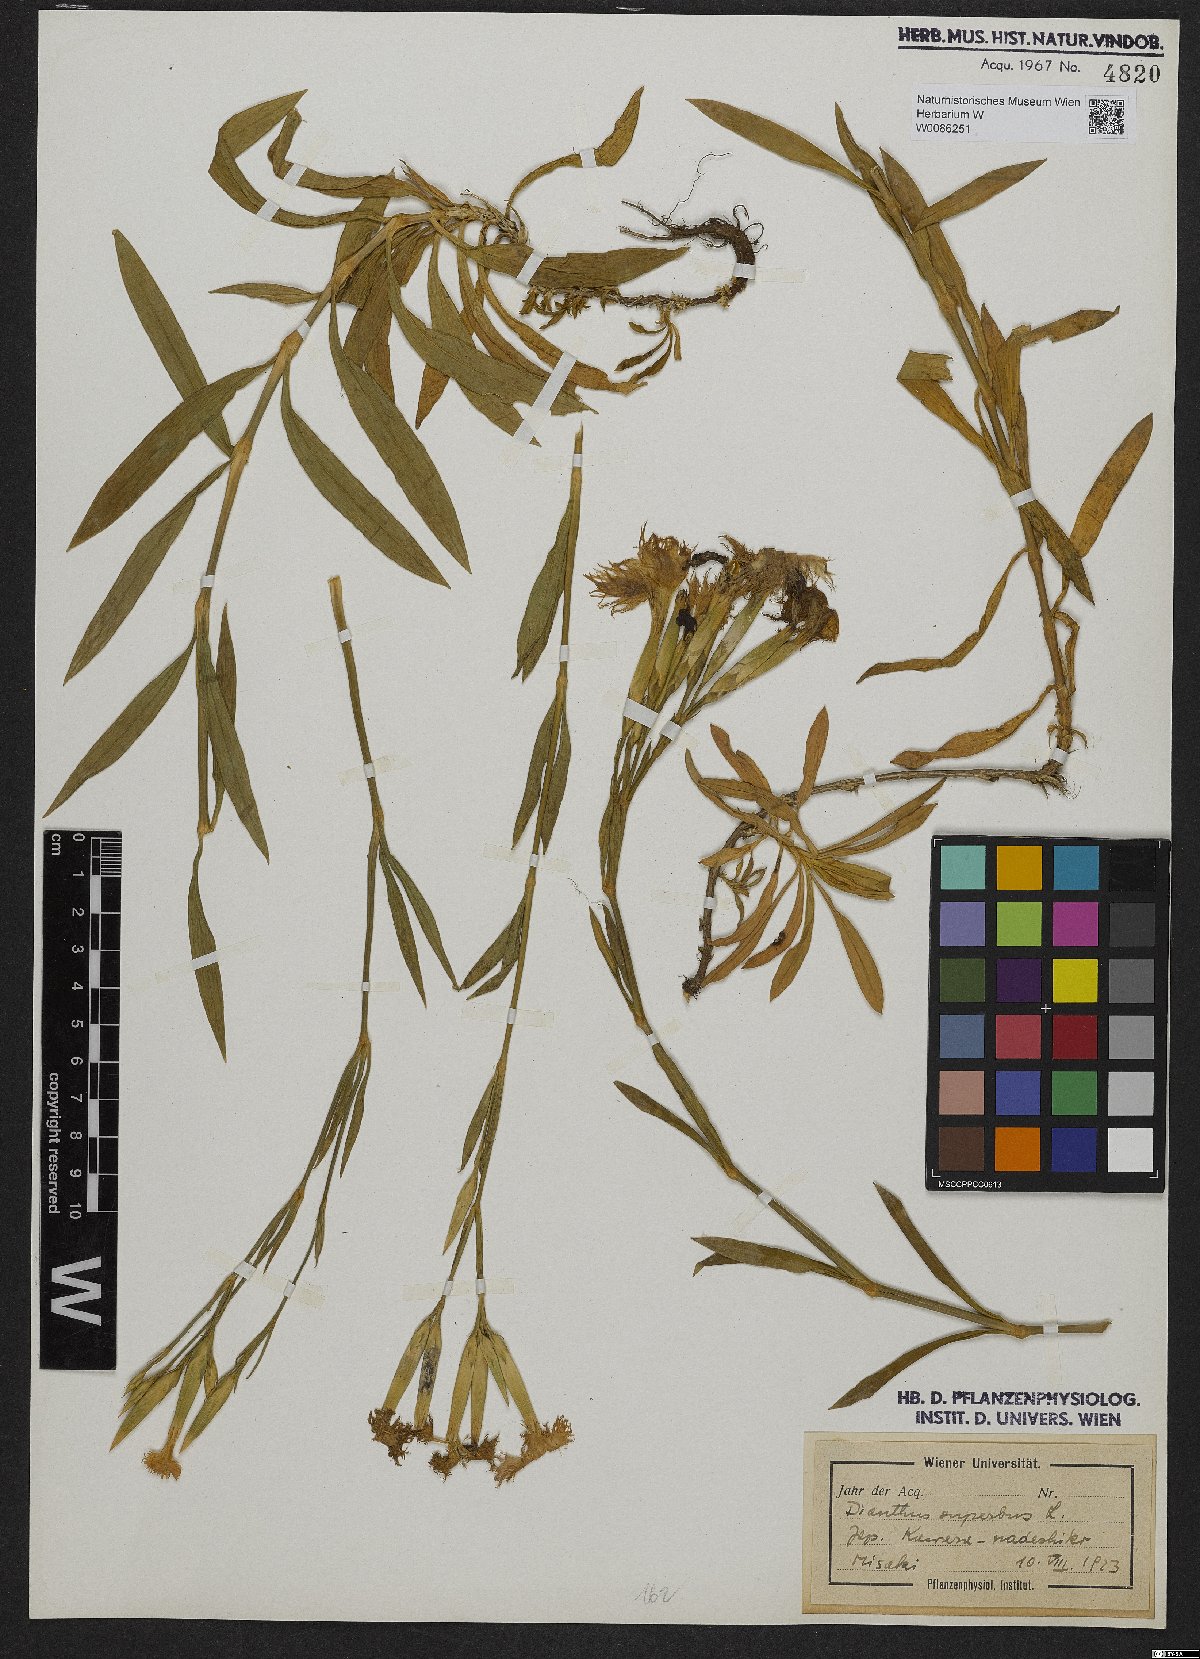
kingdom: Plantae
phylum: Tracheophyta
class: Magnoliopsida
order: Caryophyllales
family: Caryophyllaceae
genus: Dianthus
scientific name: Dianthus superbus
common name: Fringed pink
